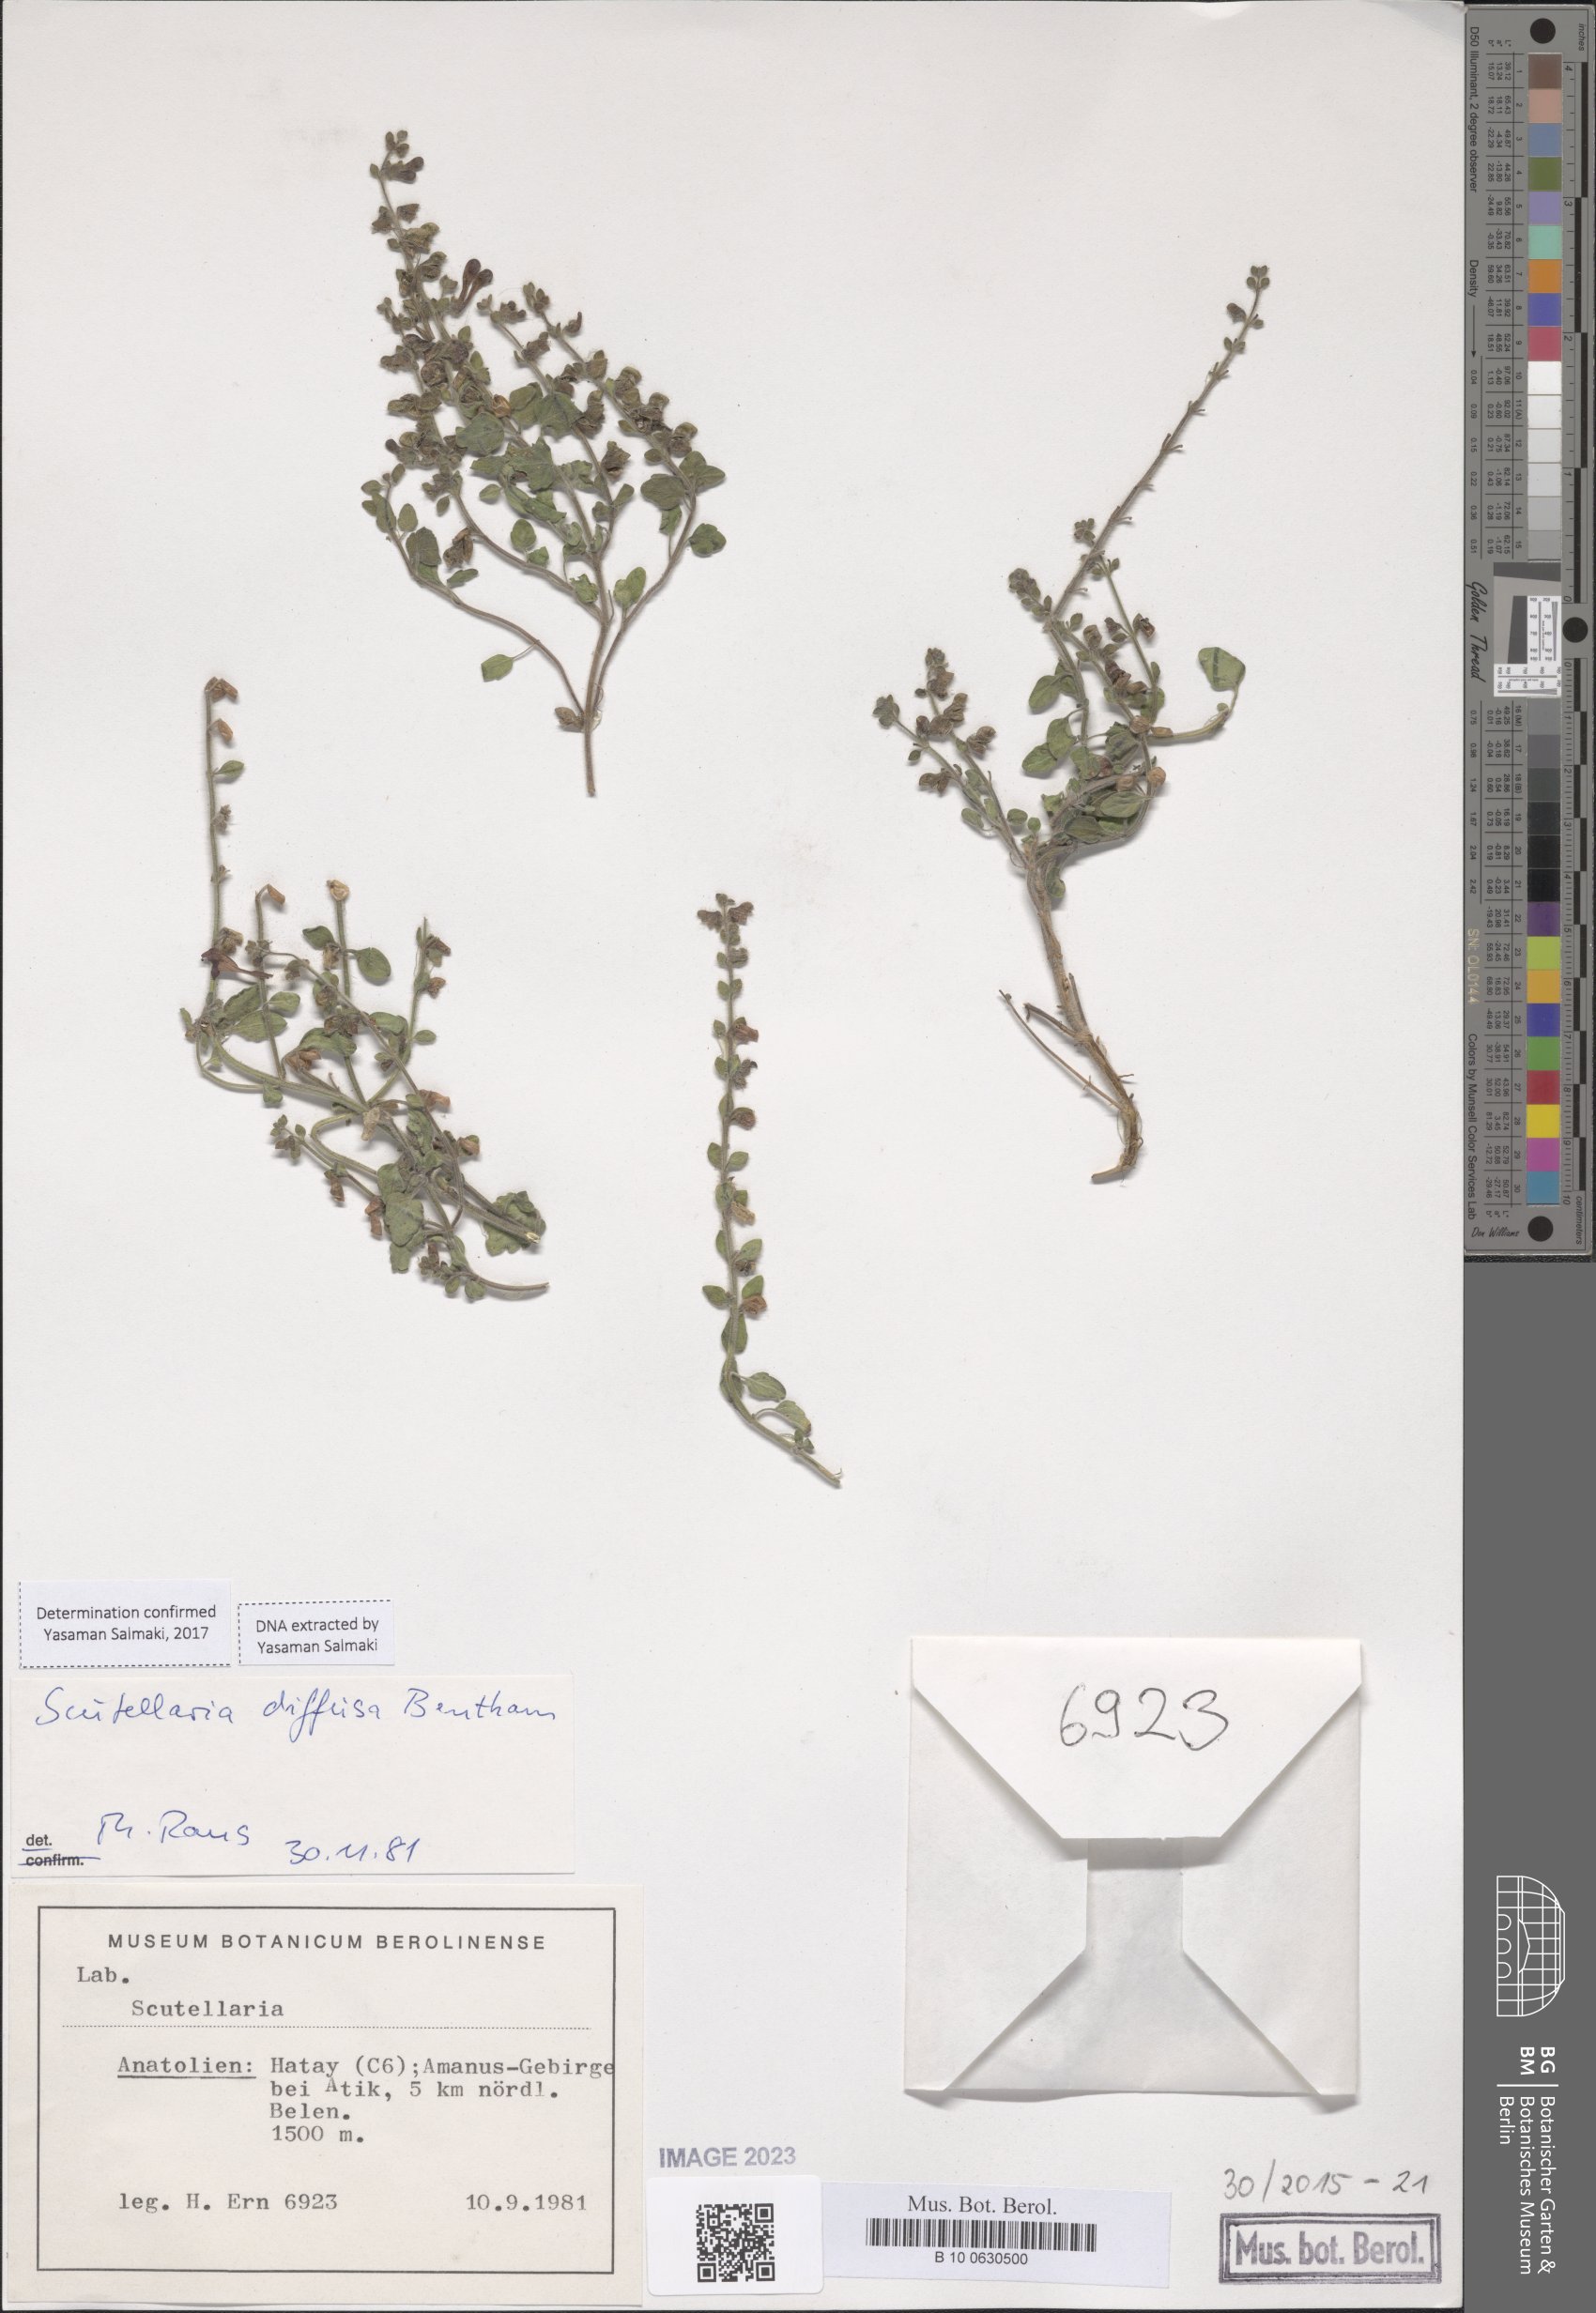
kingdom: Plantae
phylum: Tracheophyta
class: Magnoliopsida
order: Lamiales
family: Lamiaceae
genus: Scutellaria
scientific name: Scutellaria diffusa
